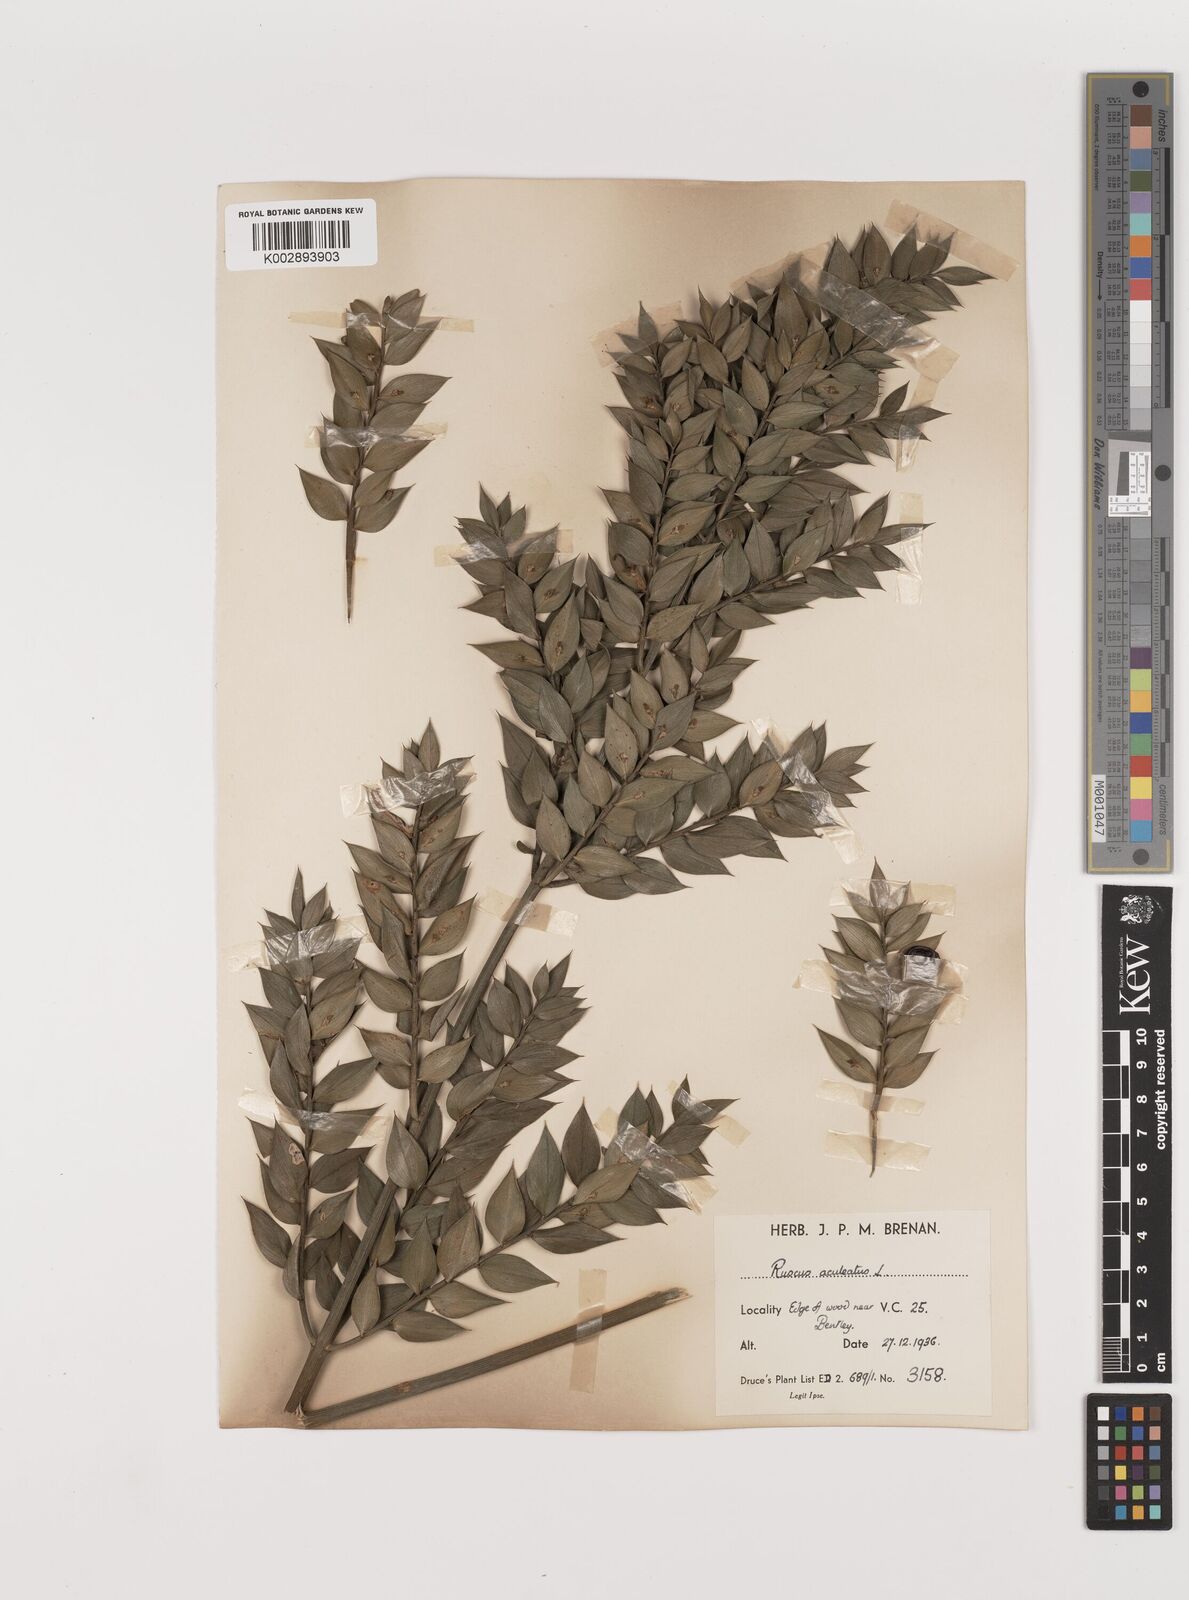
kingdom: Plantae
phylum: Tracheophyta
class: Liliopsida
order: Asparagales
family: Asparagaceae
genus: Ruscus
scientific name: Ruscus aculeatus
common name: Butcher's-broom
